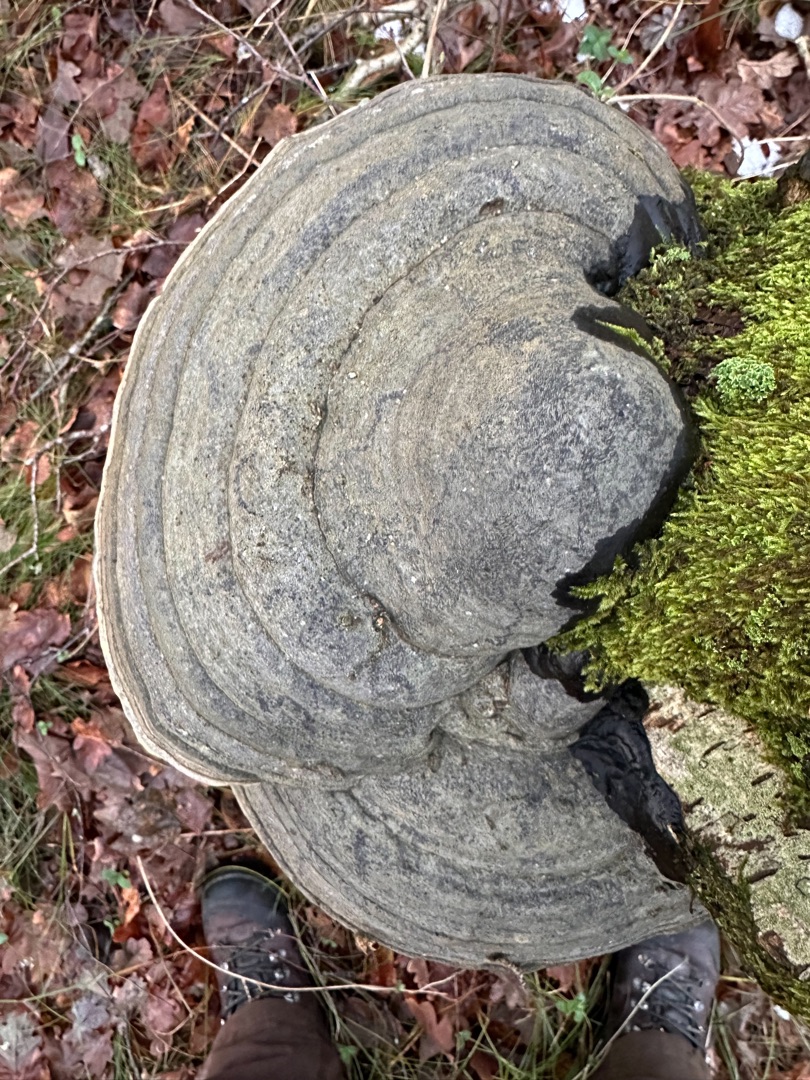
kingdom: Fungi
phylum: Basidiomycota
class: Agaricomycetes
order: Polyporales
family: Polyporaceae
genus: Fomes
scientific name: Fomes fomentarius
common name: Tøndersvamp
